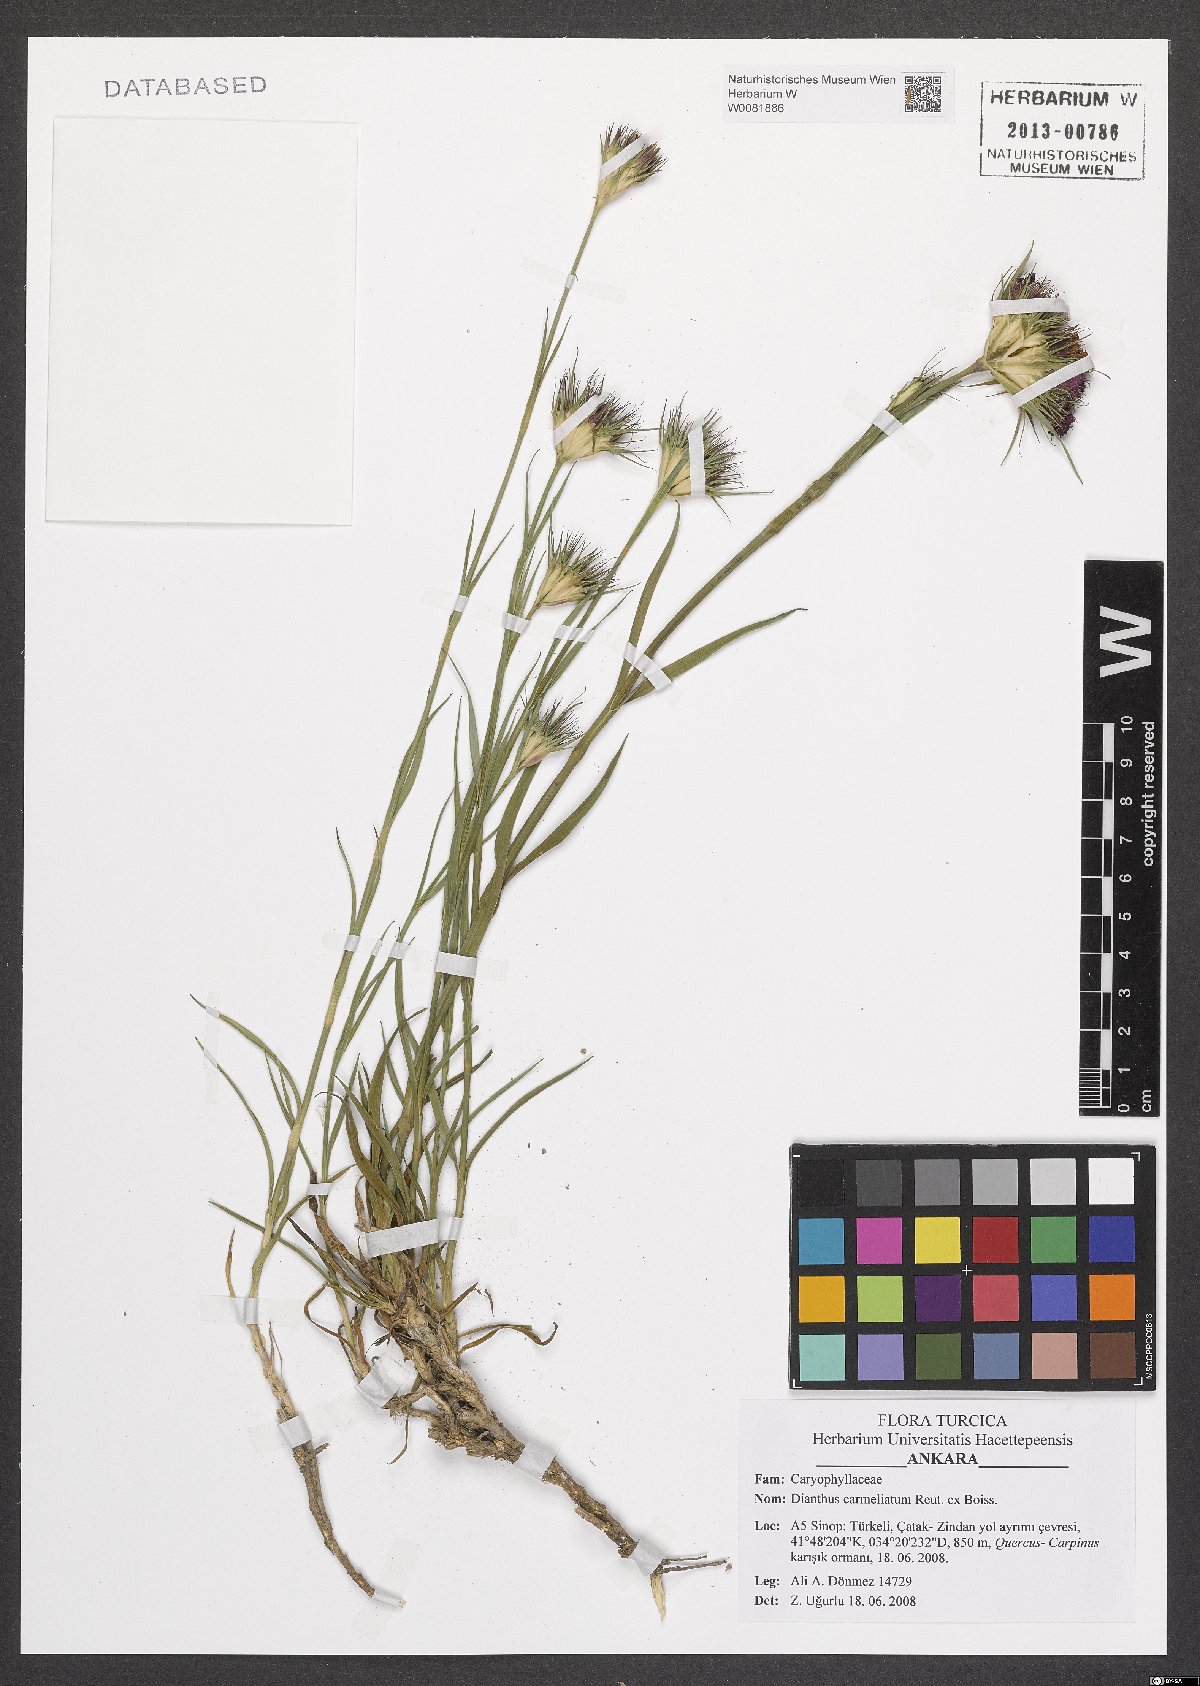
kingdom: Plantae
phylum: Tracheophyta
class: Magnoliopsida
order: Caryophyllales
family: Caryophyllaceae
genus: Dianthus
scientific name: Dianthus carmelitarum
